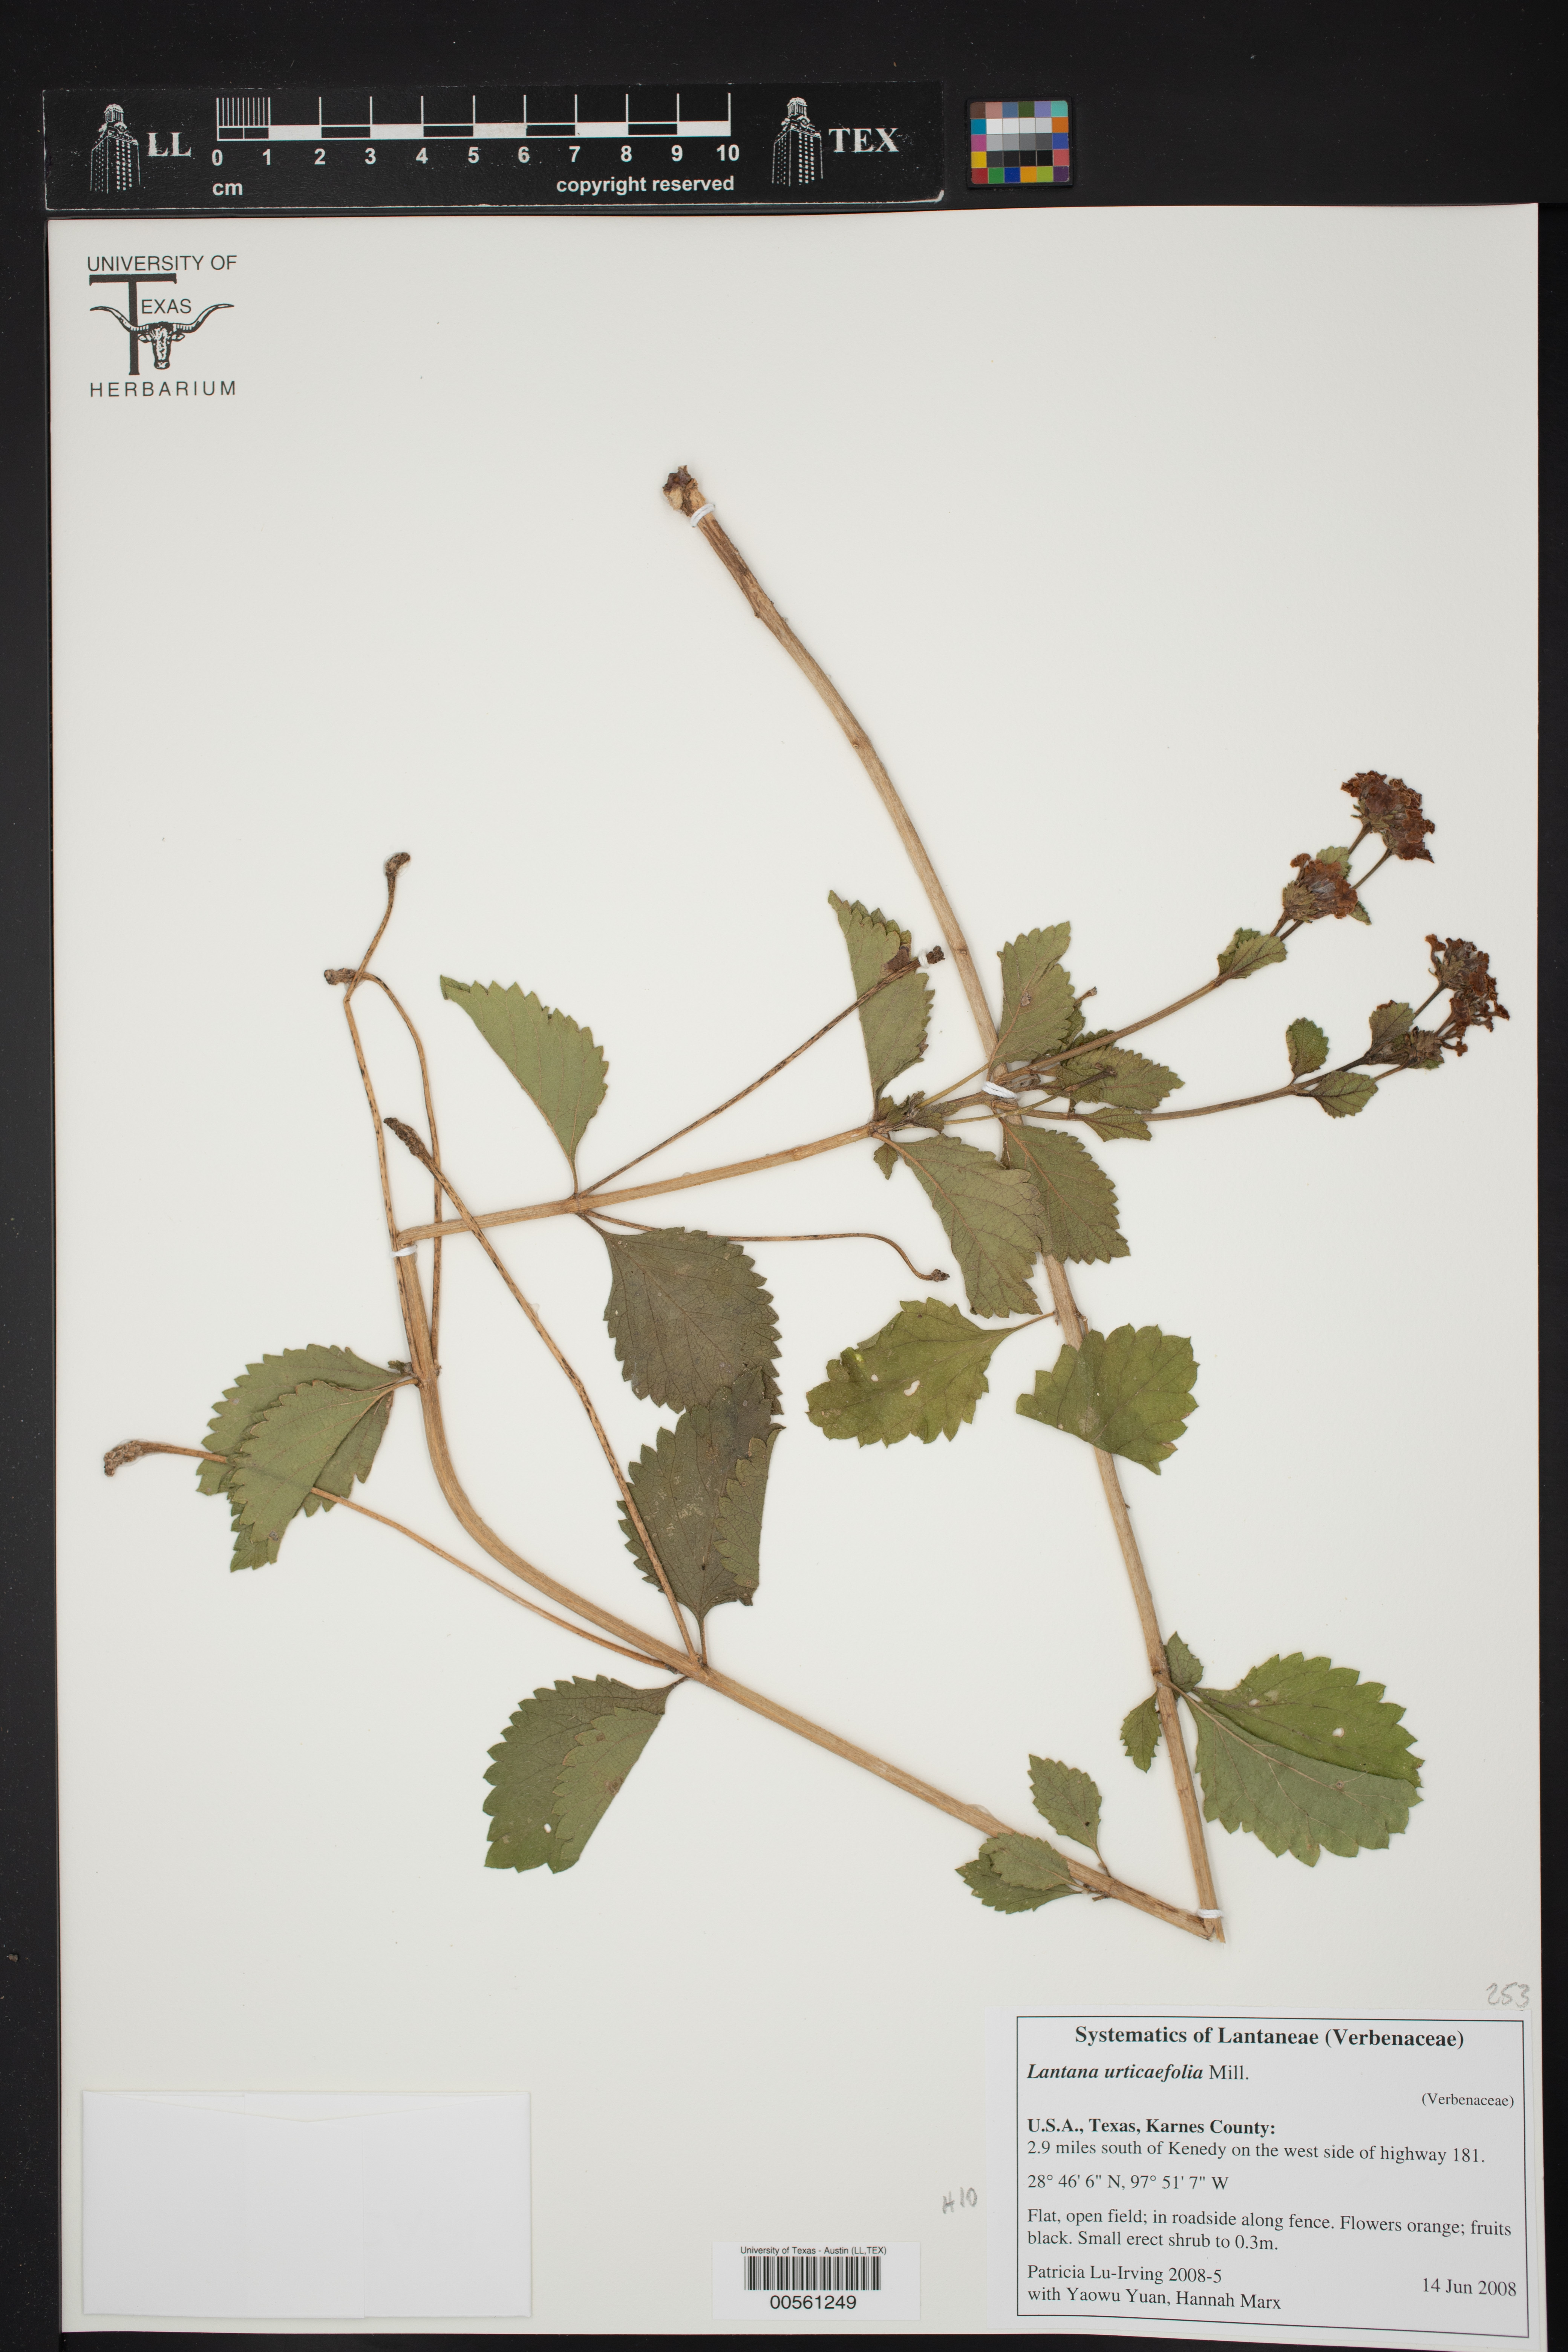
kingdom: Plantae
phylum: Tracheophyta
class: Magnoliopsida
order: Lamiales
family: Verbenaceae
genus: Lantana
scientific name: Lantana urticoides
